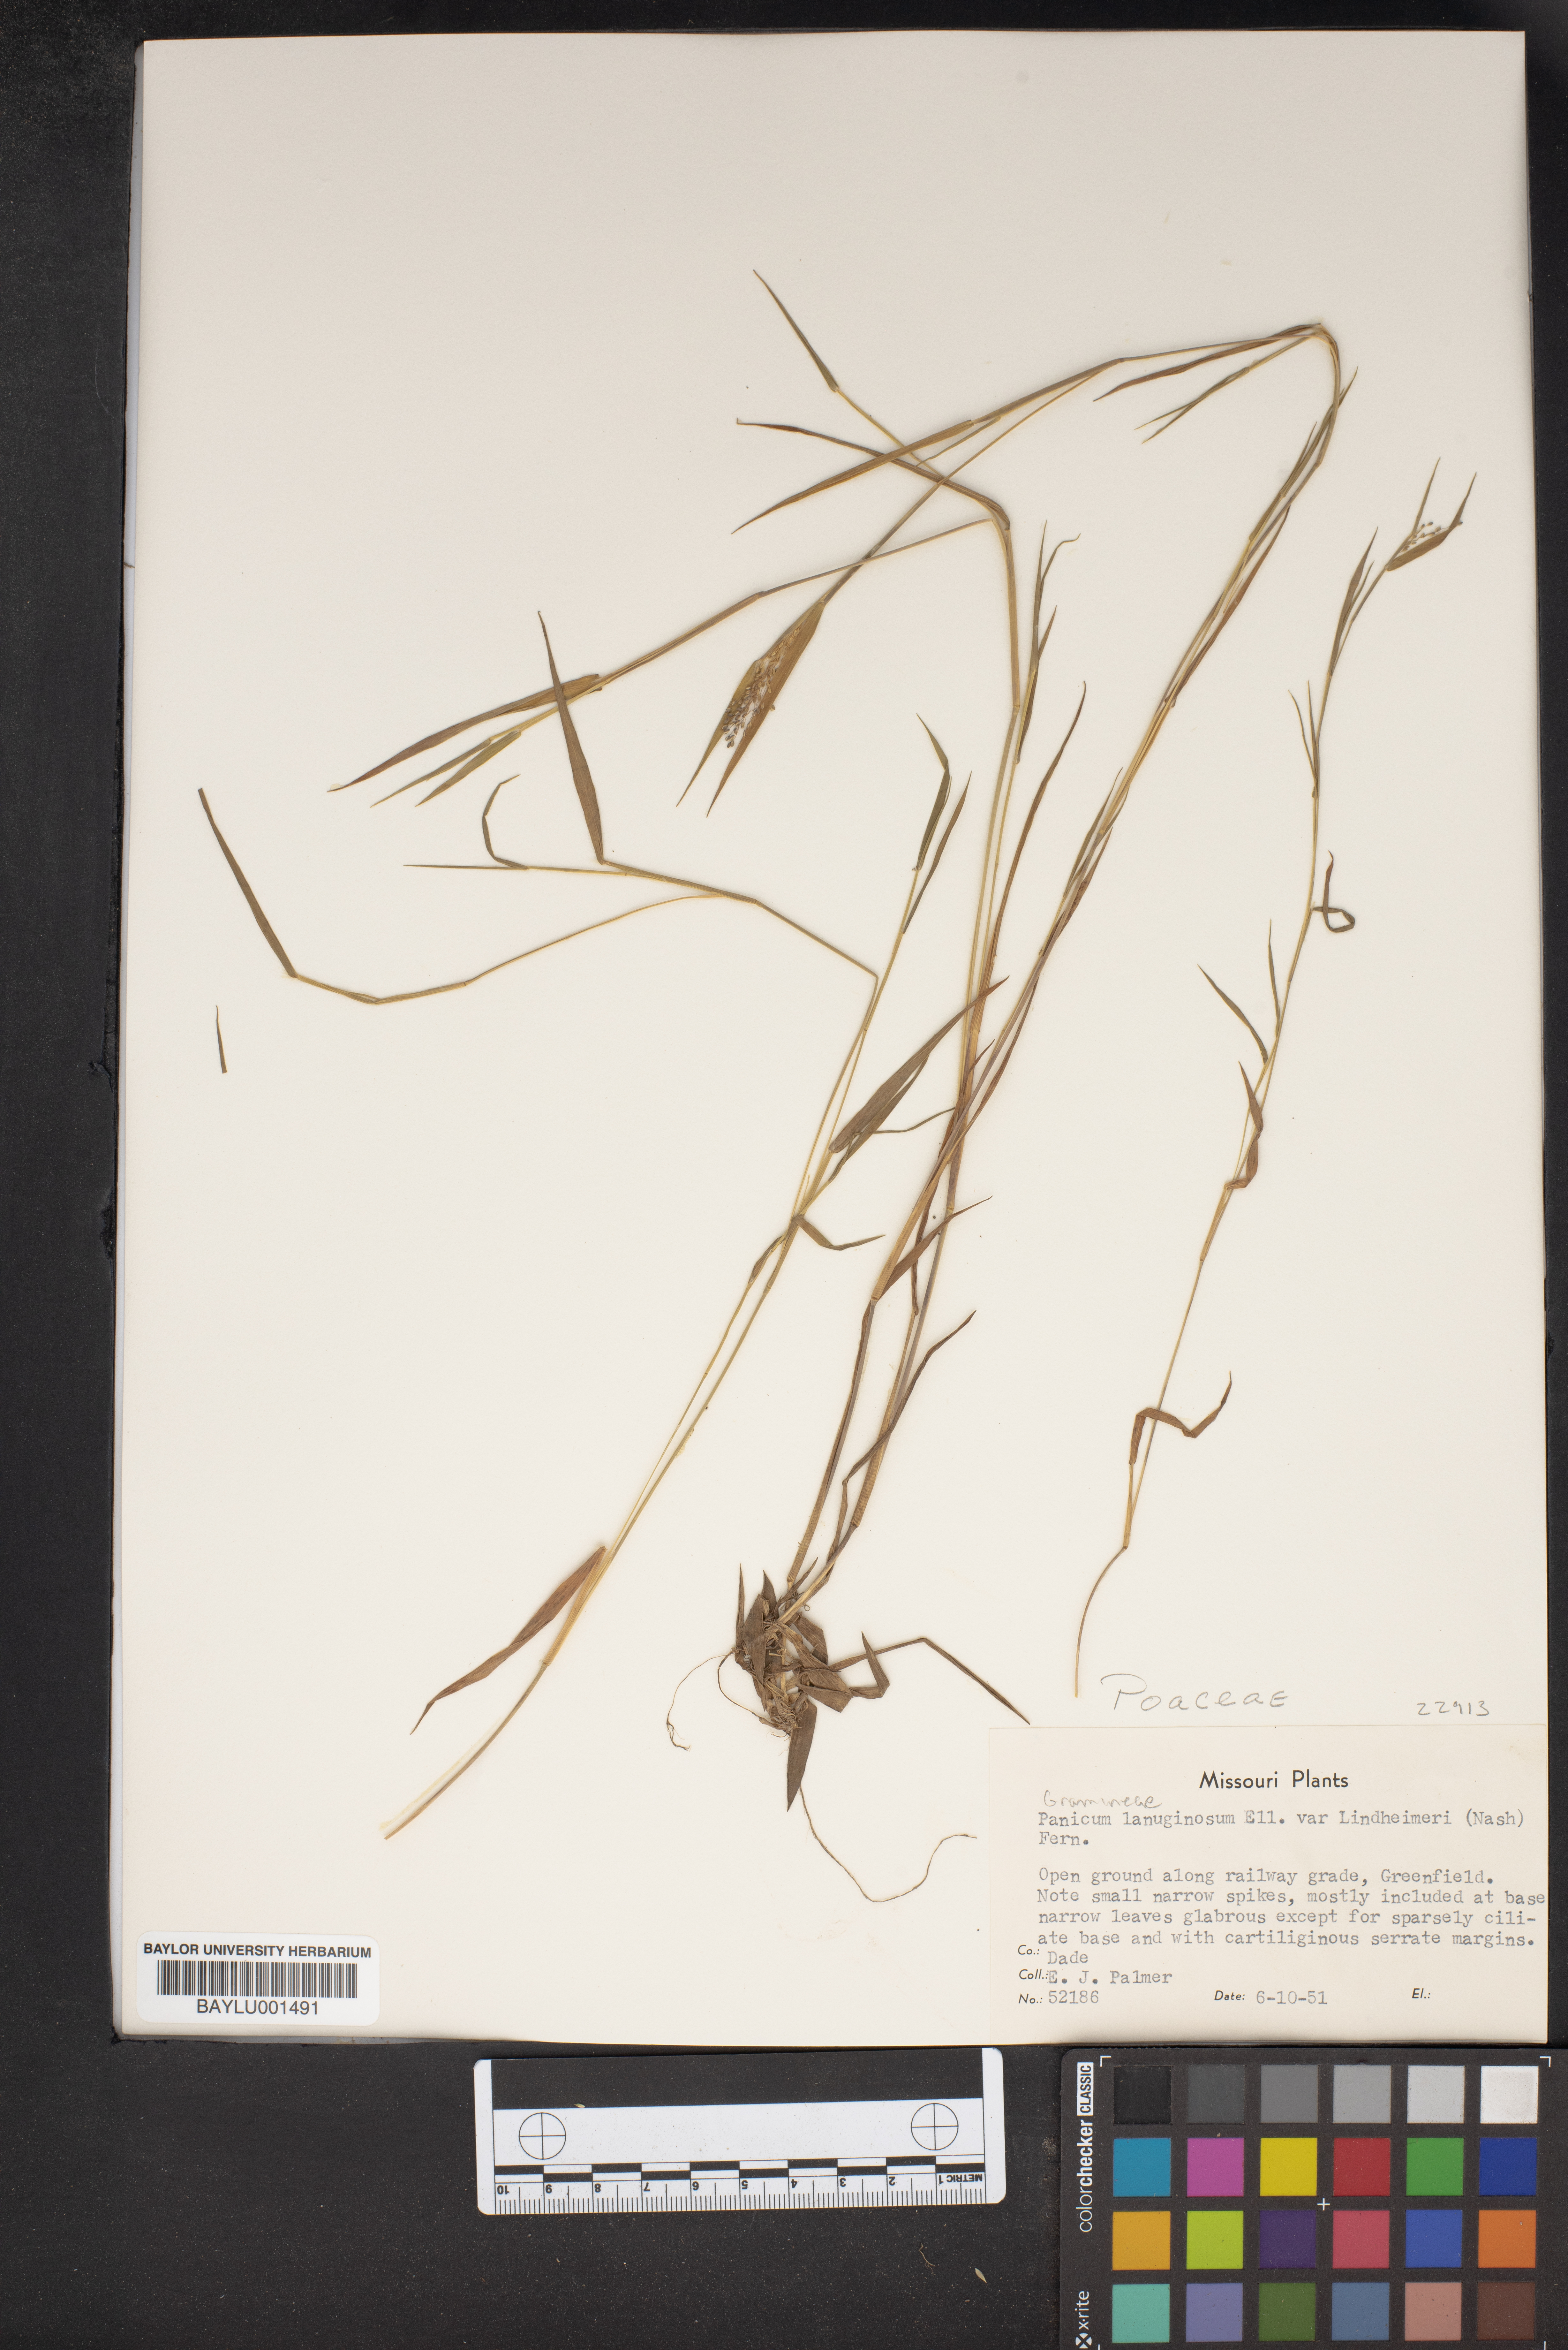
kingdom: Plantae
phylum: Tracheophyta
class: Liliopsida
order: Poales
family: Poaceae
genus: Dichanthelium
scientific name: Dichanthelium lindheimeri
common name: Lindheimer's panicgrass
